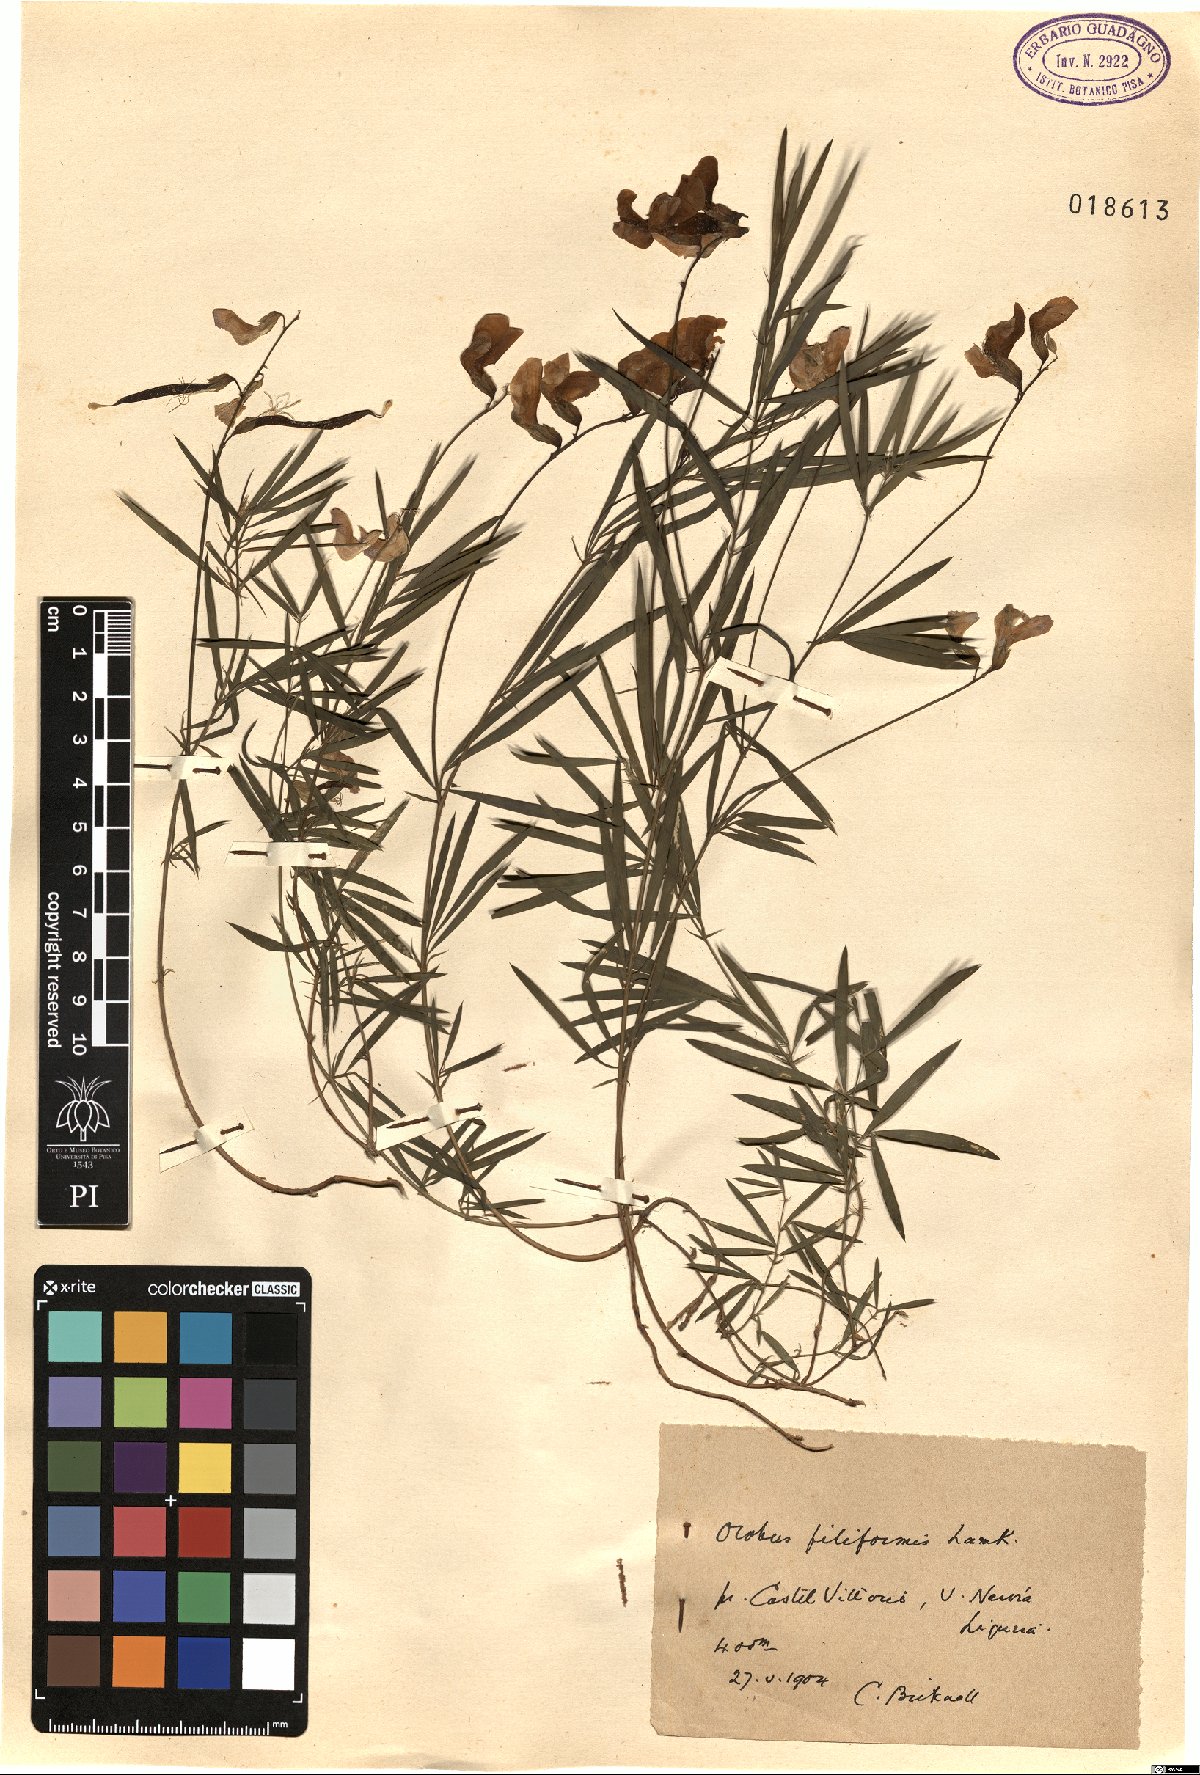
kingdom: Plantae
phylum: Tracheophyta
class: Magnoliopsida
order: Fabales
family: Fabaceae
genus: Lathyrus
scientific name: Lathyrus filiformis
